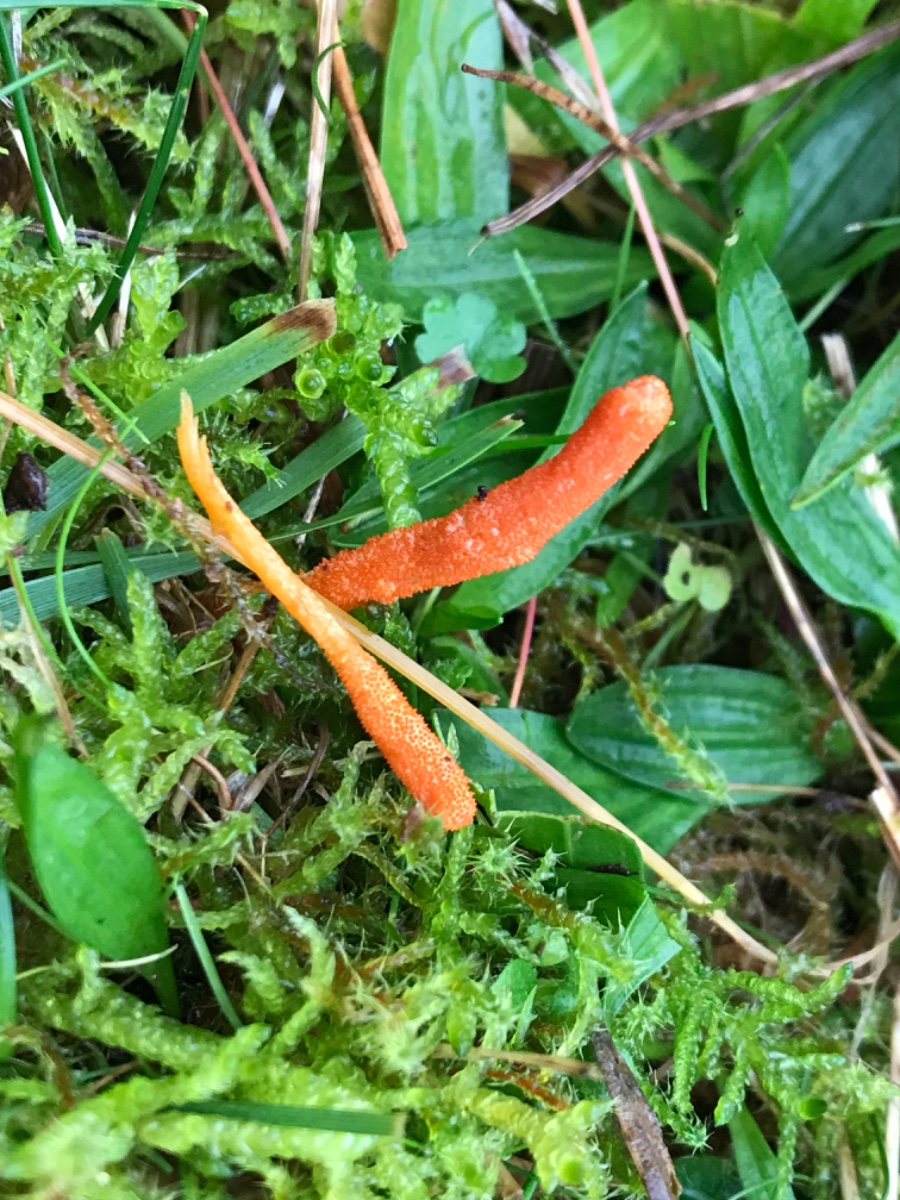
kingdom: Fungi
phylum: Ascomycota
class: Sordariomycetes
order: Hypocreales
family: Cordycipitaceae
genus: Cordyceps
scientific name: Cordyceps militaris
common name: puppe-snyltekølle
